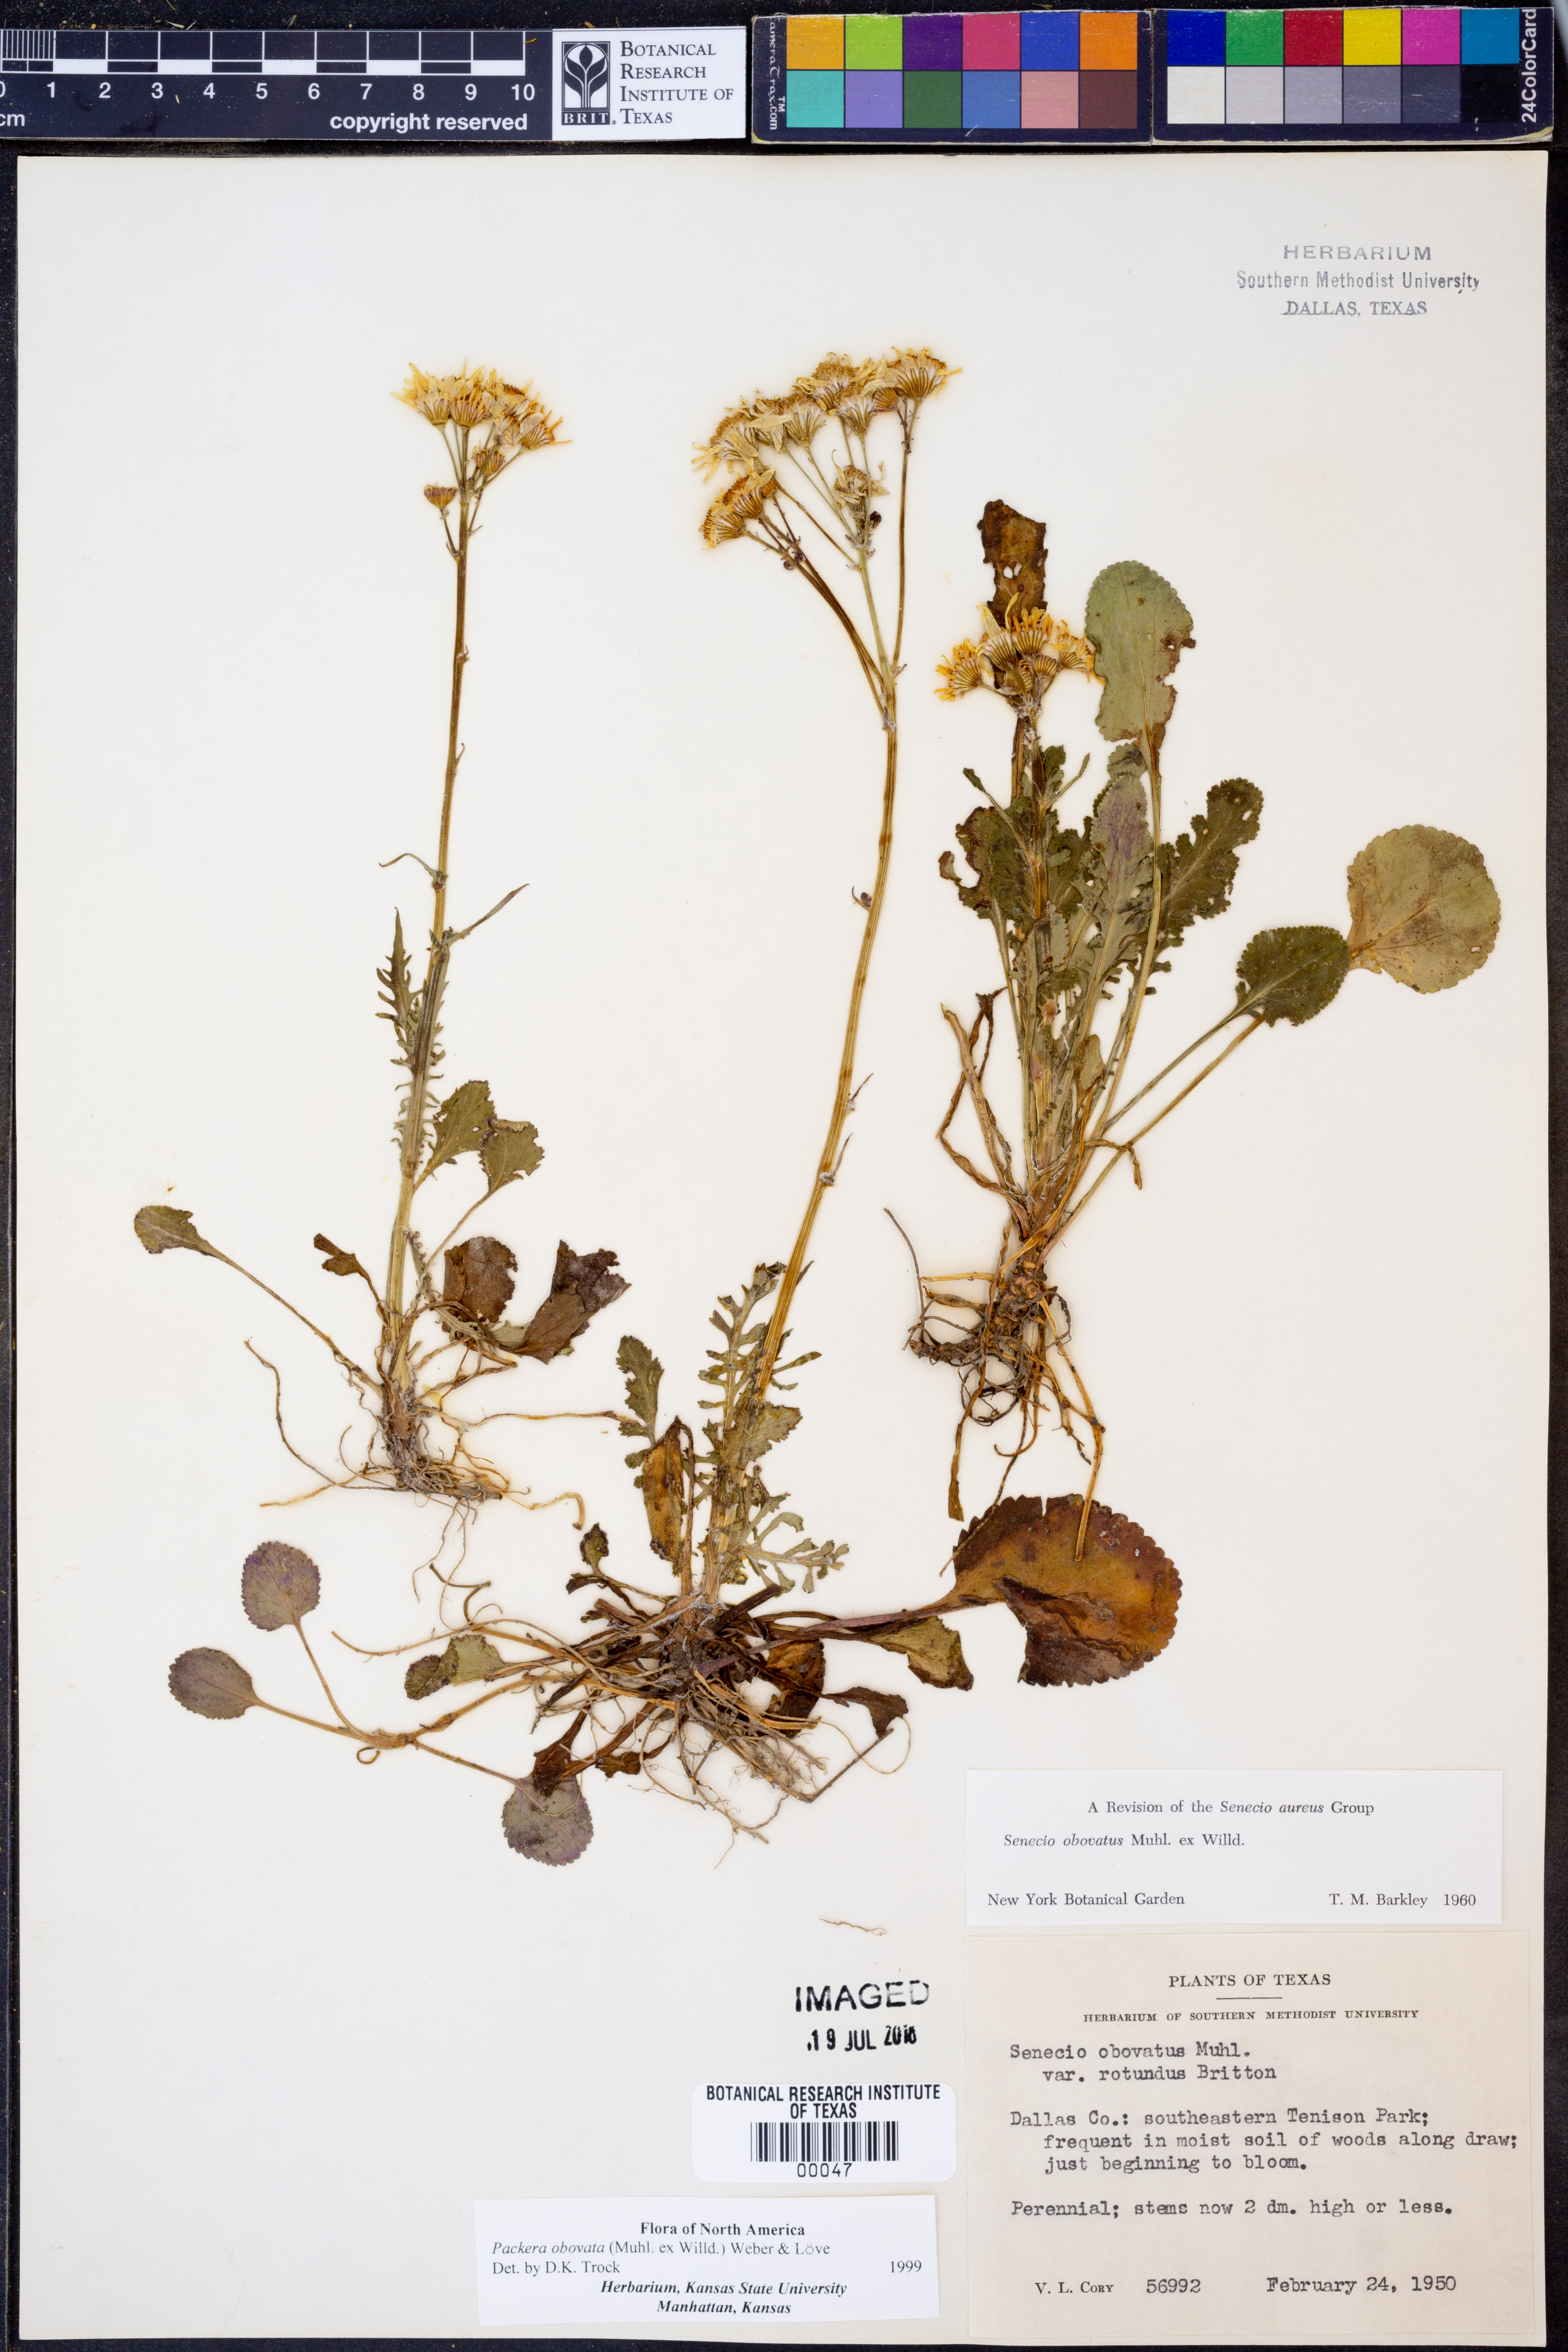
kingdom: Plantae
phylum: Tracheophyta
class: Magnoliopsida
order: Asterales
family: Asteraceae
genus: Packera
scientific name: Packera obovata
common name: Round-leaf ragwort
